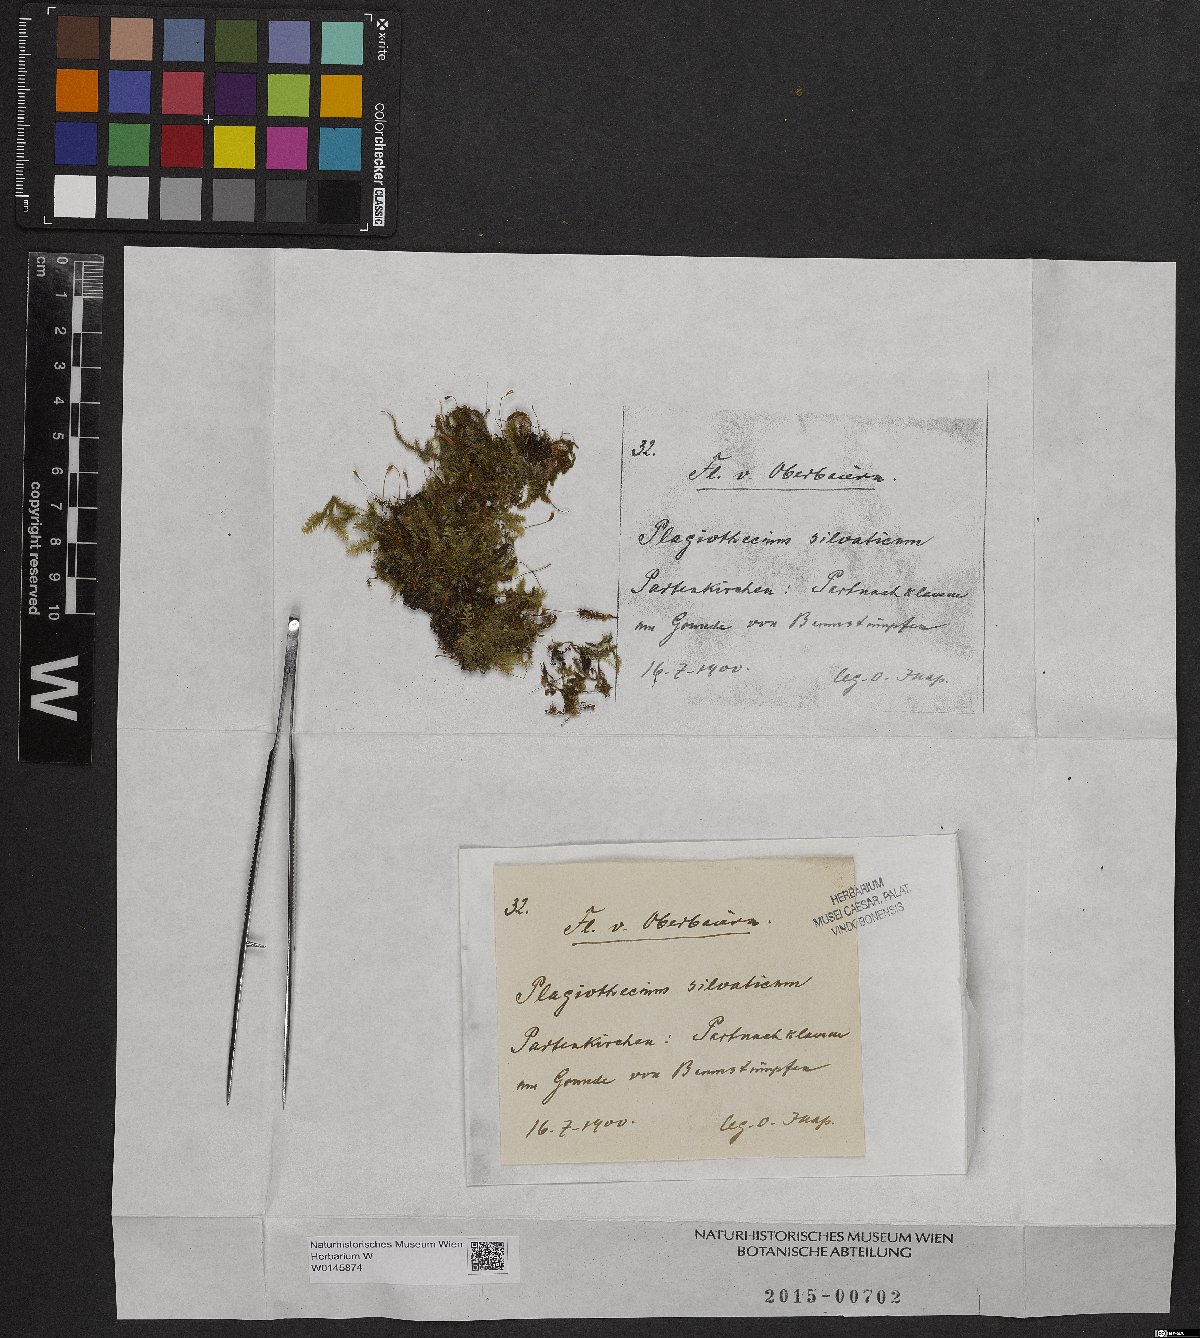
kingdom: Plantae
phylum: Bryophyta
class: Bryopsida
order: Hypnales
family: Plagiotheciaceae
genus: Plagiothecium
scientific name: Plagiothecium denticulatum
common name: Dented silk moss
